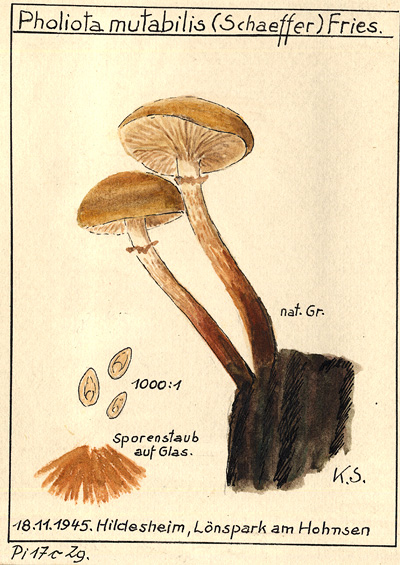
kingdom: Fungi
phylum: Basidiomycota
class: Agaricomycetes
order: Agaricales
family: Strophariaceae
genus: Kuehneromyces
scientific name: Kuehneromyces mutabilis
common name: Sheathed woodtuft
